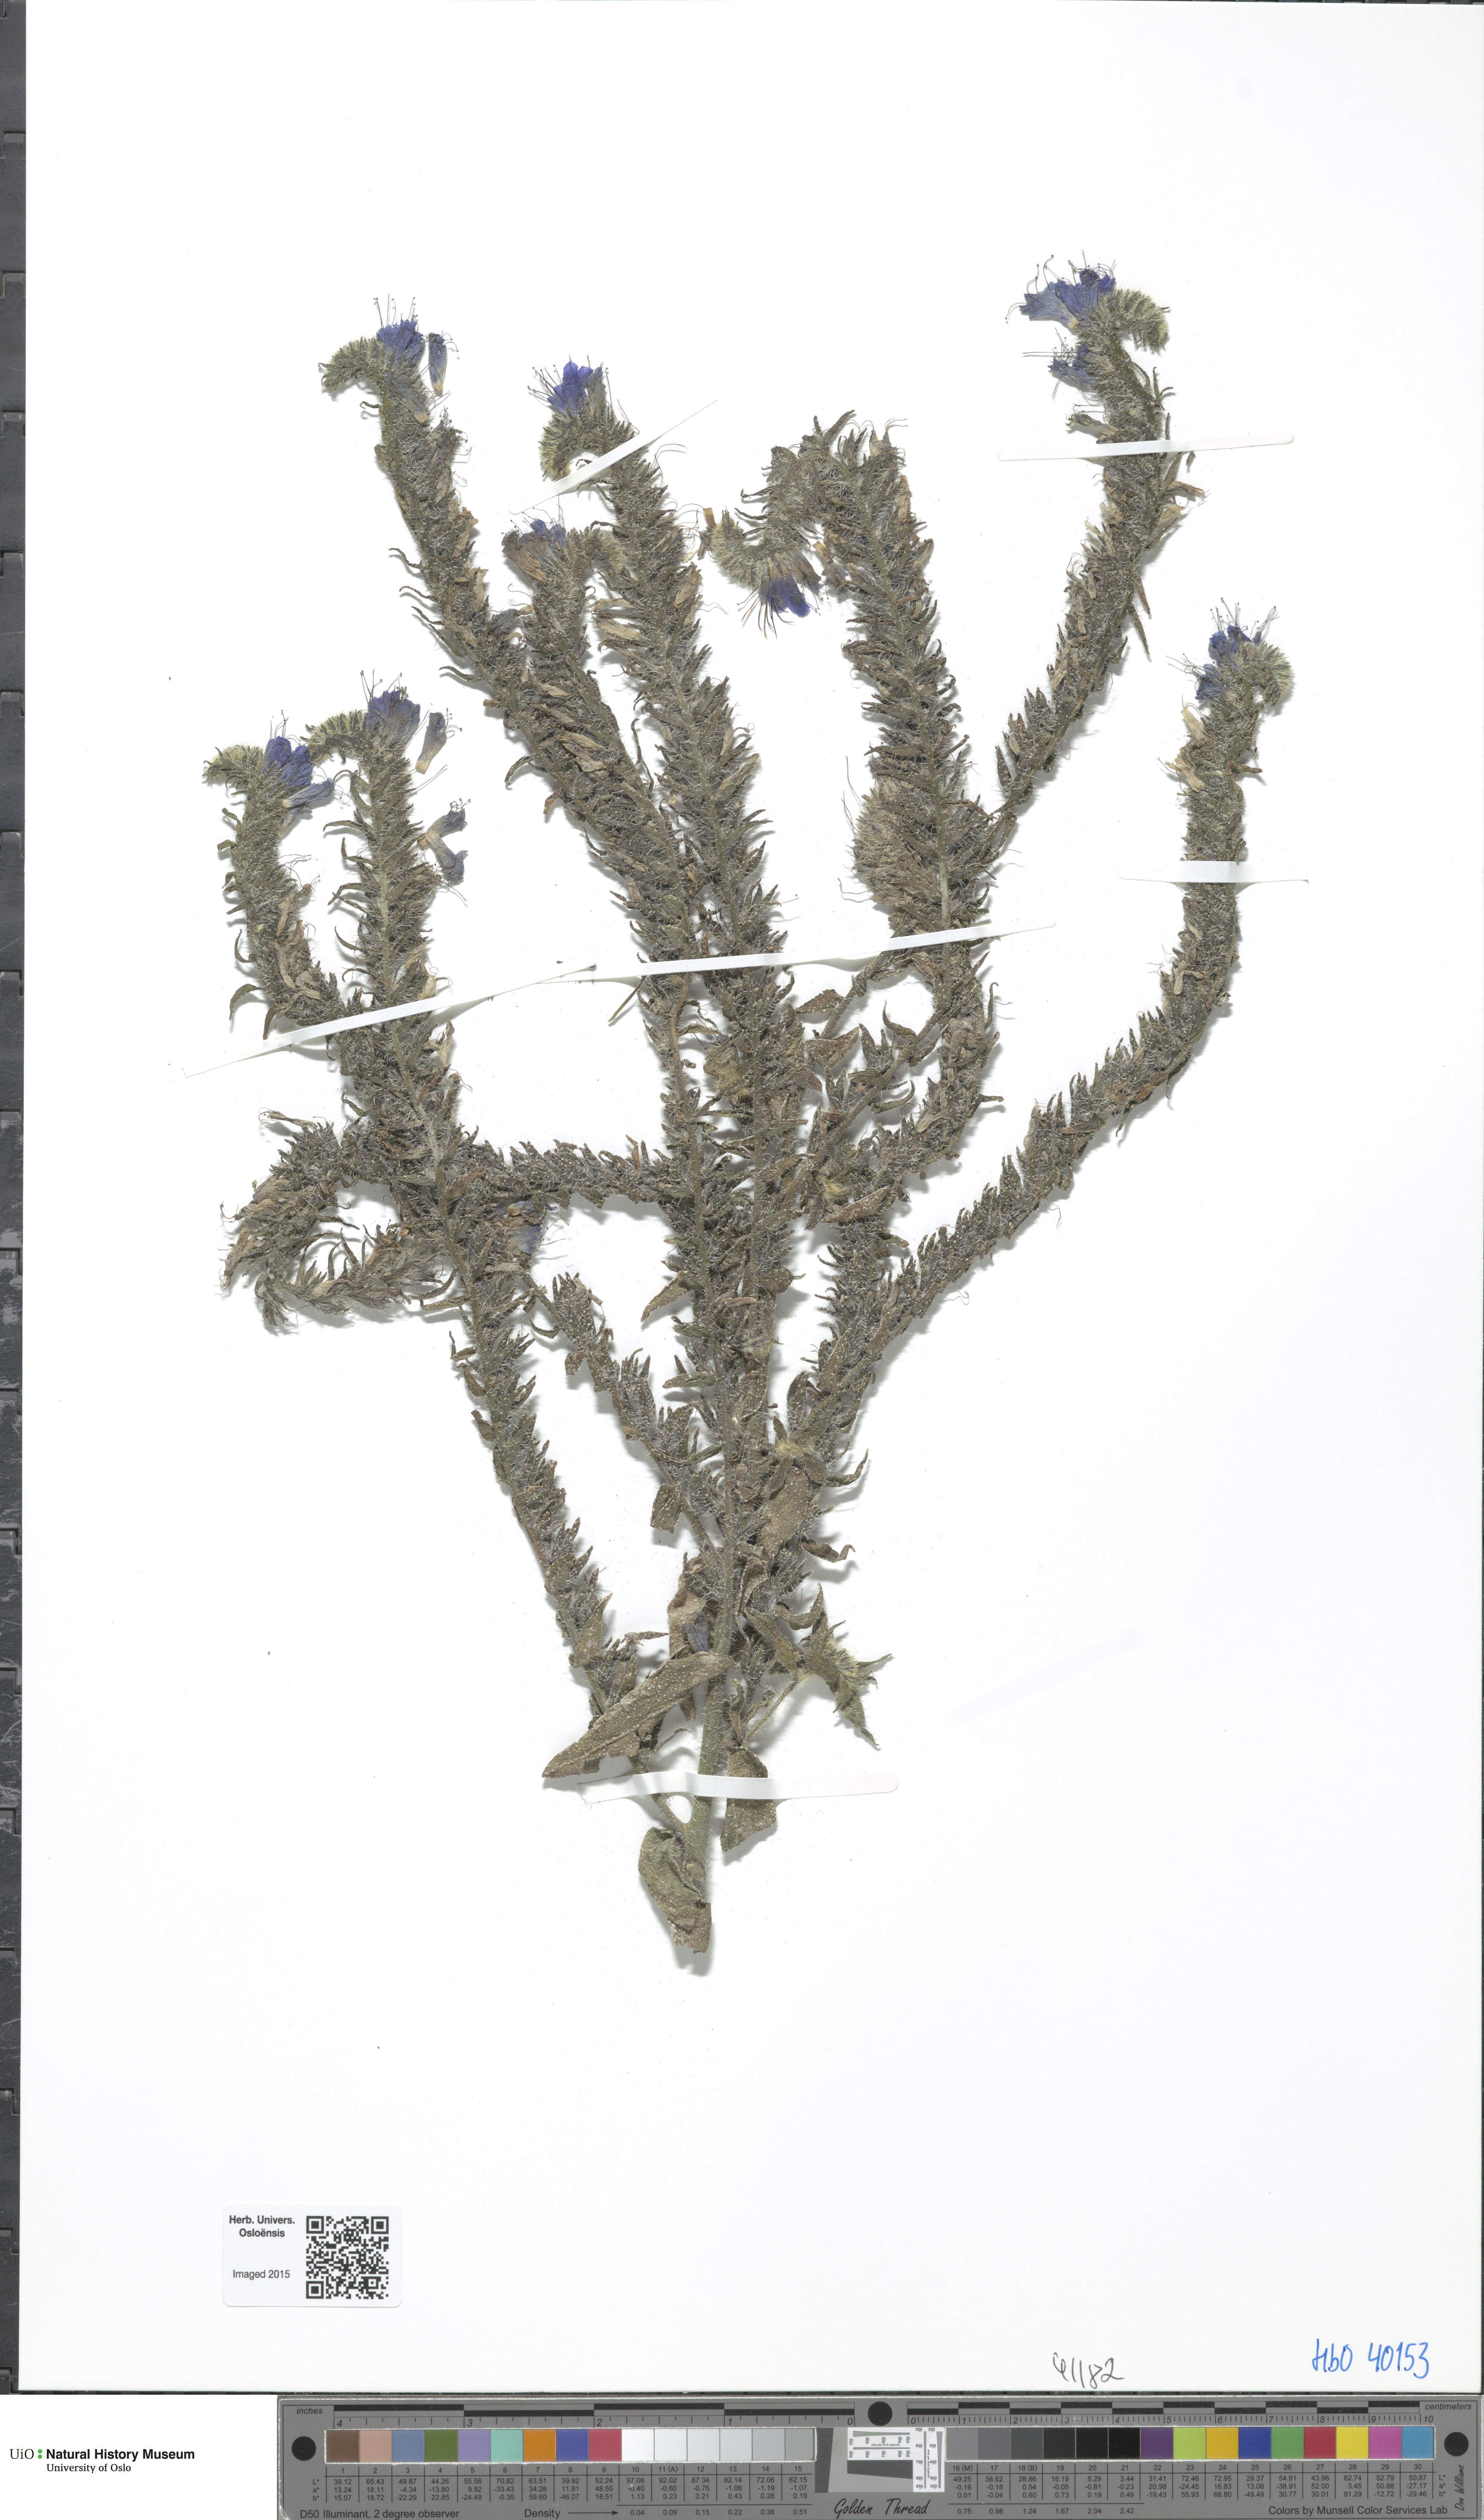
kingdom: Plantae
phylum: Tracheophyta
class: Magnoliopsida
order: Boraginales
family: Boraginaceae
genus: Echium
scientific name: Echium vulgare
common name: Common viper's bugloss
